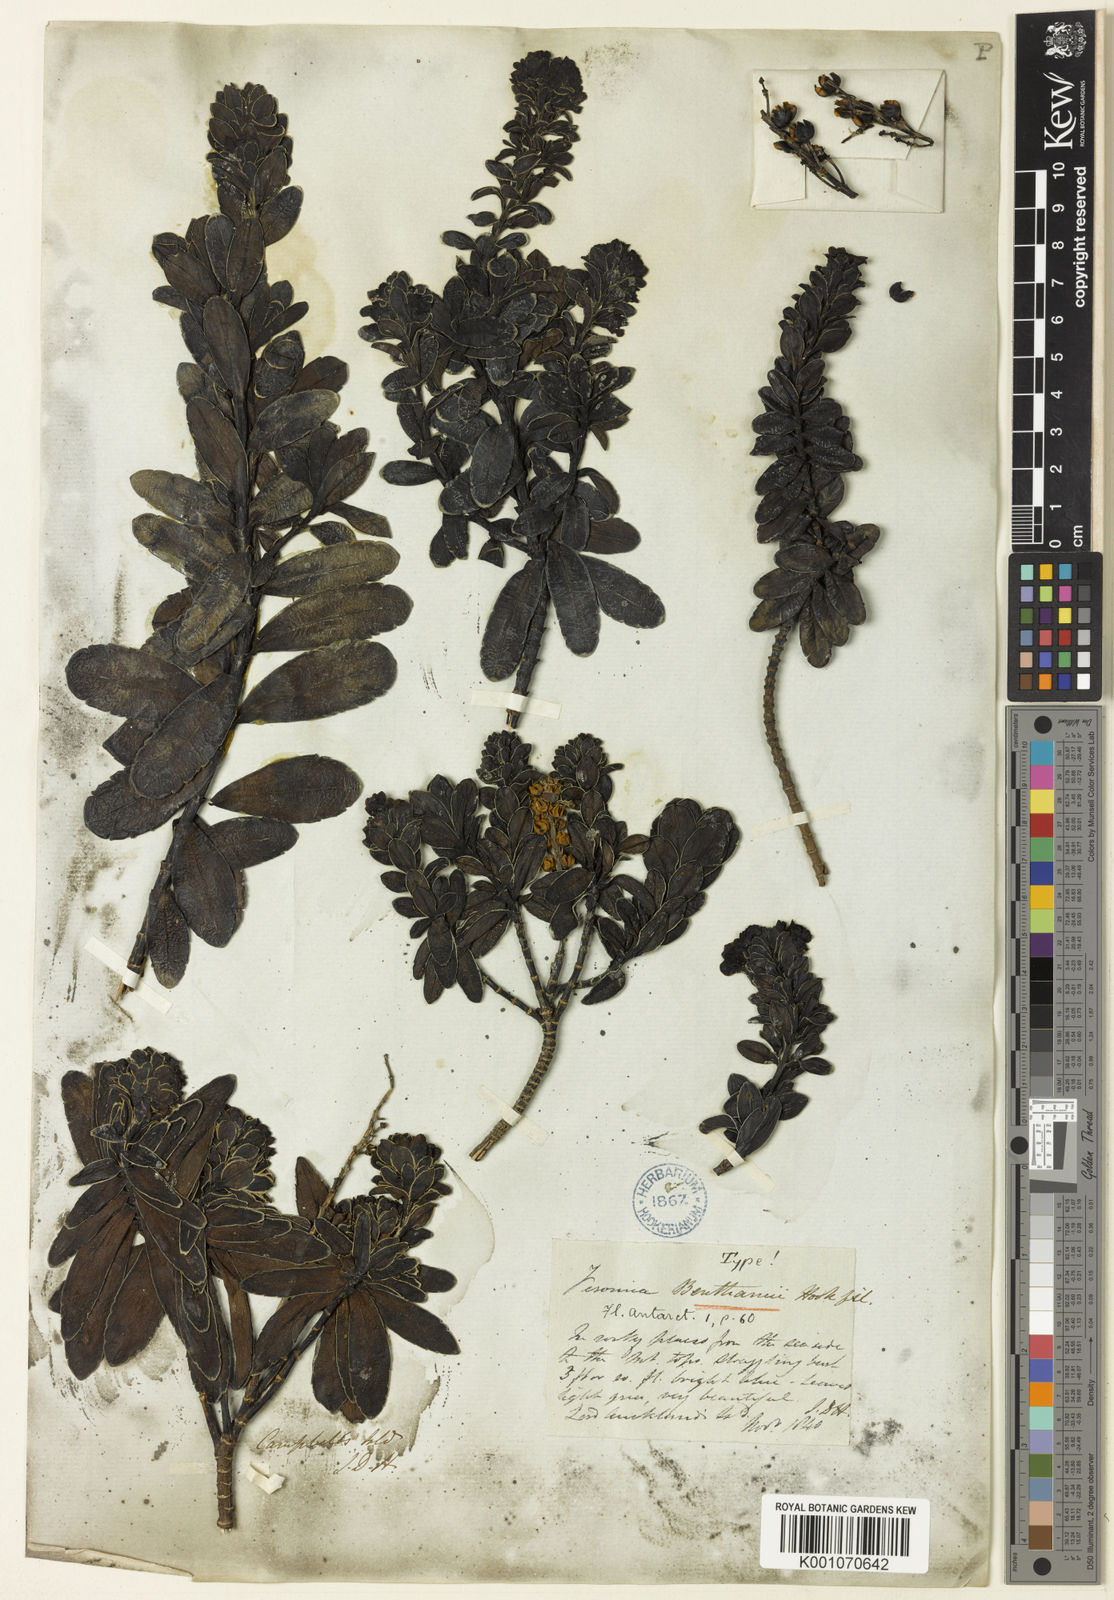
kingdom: Plantae
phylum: Tracheophyta
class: Magnoliopsida
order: Lamiales
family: Plantaginaceae
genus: Veronica
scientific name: Veronica benthamii
